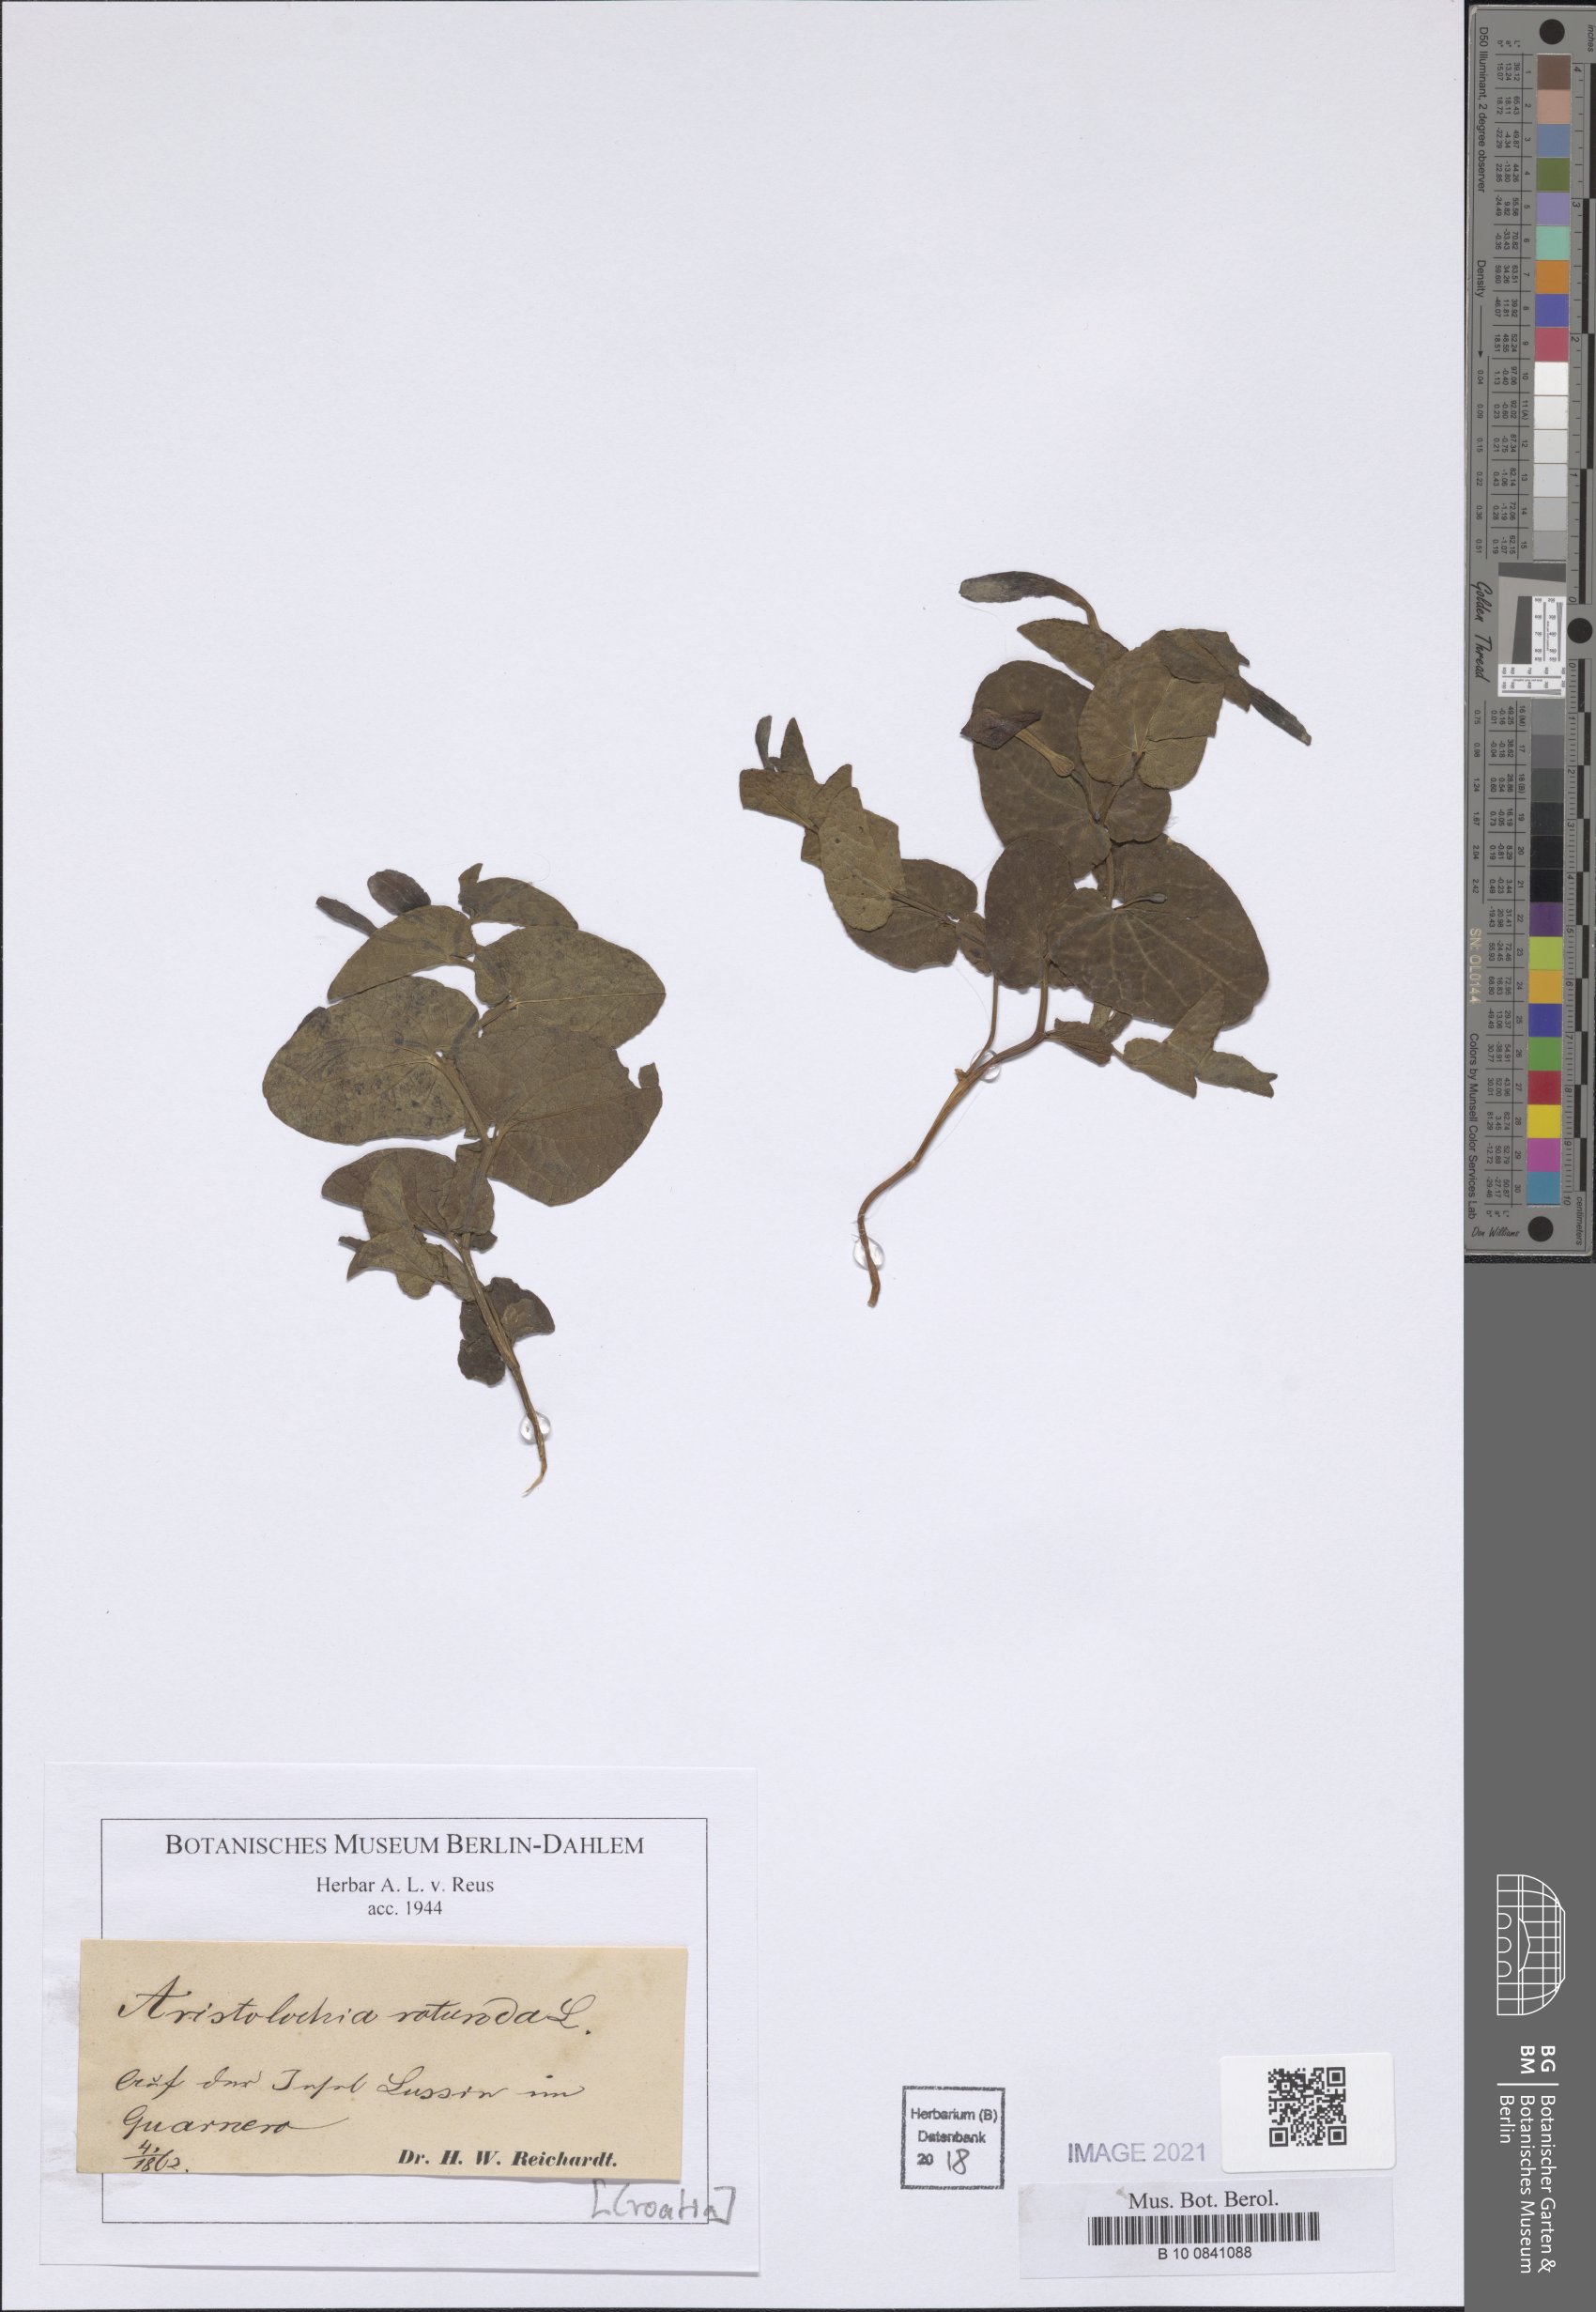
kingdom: Plantae
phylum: Tracheophyta
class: Magnoliopsida
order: Piperales
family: Aristolochiaceae
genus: Aristolochia
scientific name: Aristolochia rotunda
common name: Smearwort
